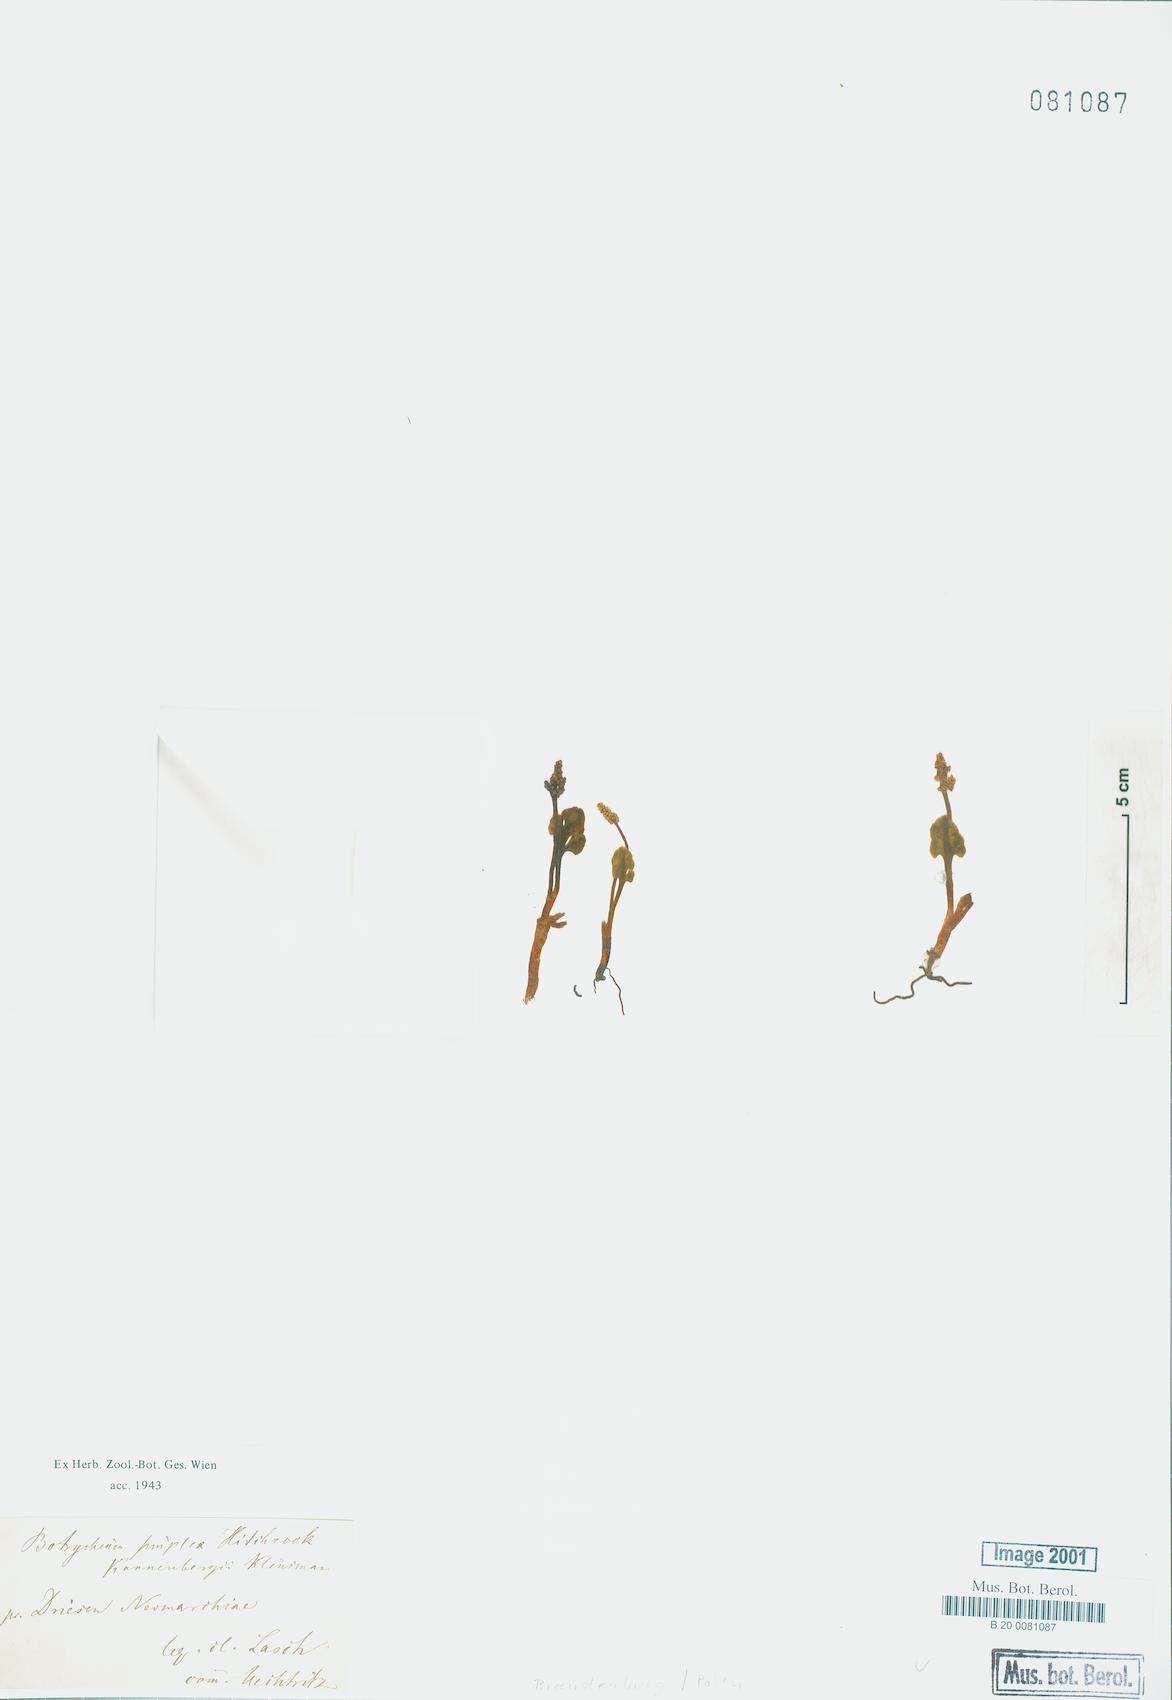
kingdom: Plantae
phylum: Tracheophyta
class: Polypodiopsida
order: Ophioglossales
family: Ophioglossaceae
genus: Botrychium
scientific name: Botrychium simplex
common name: Least moonwort
